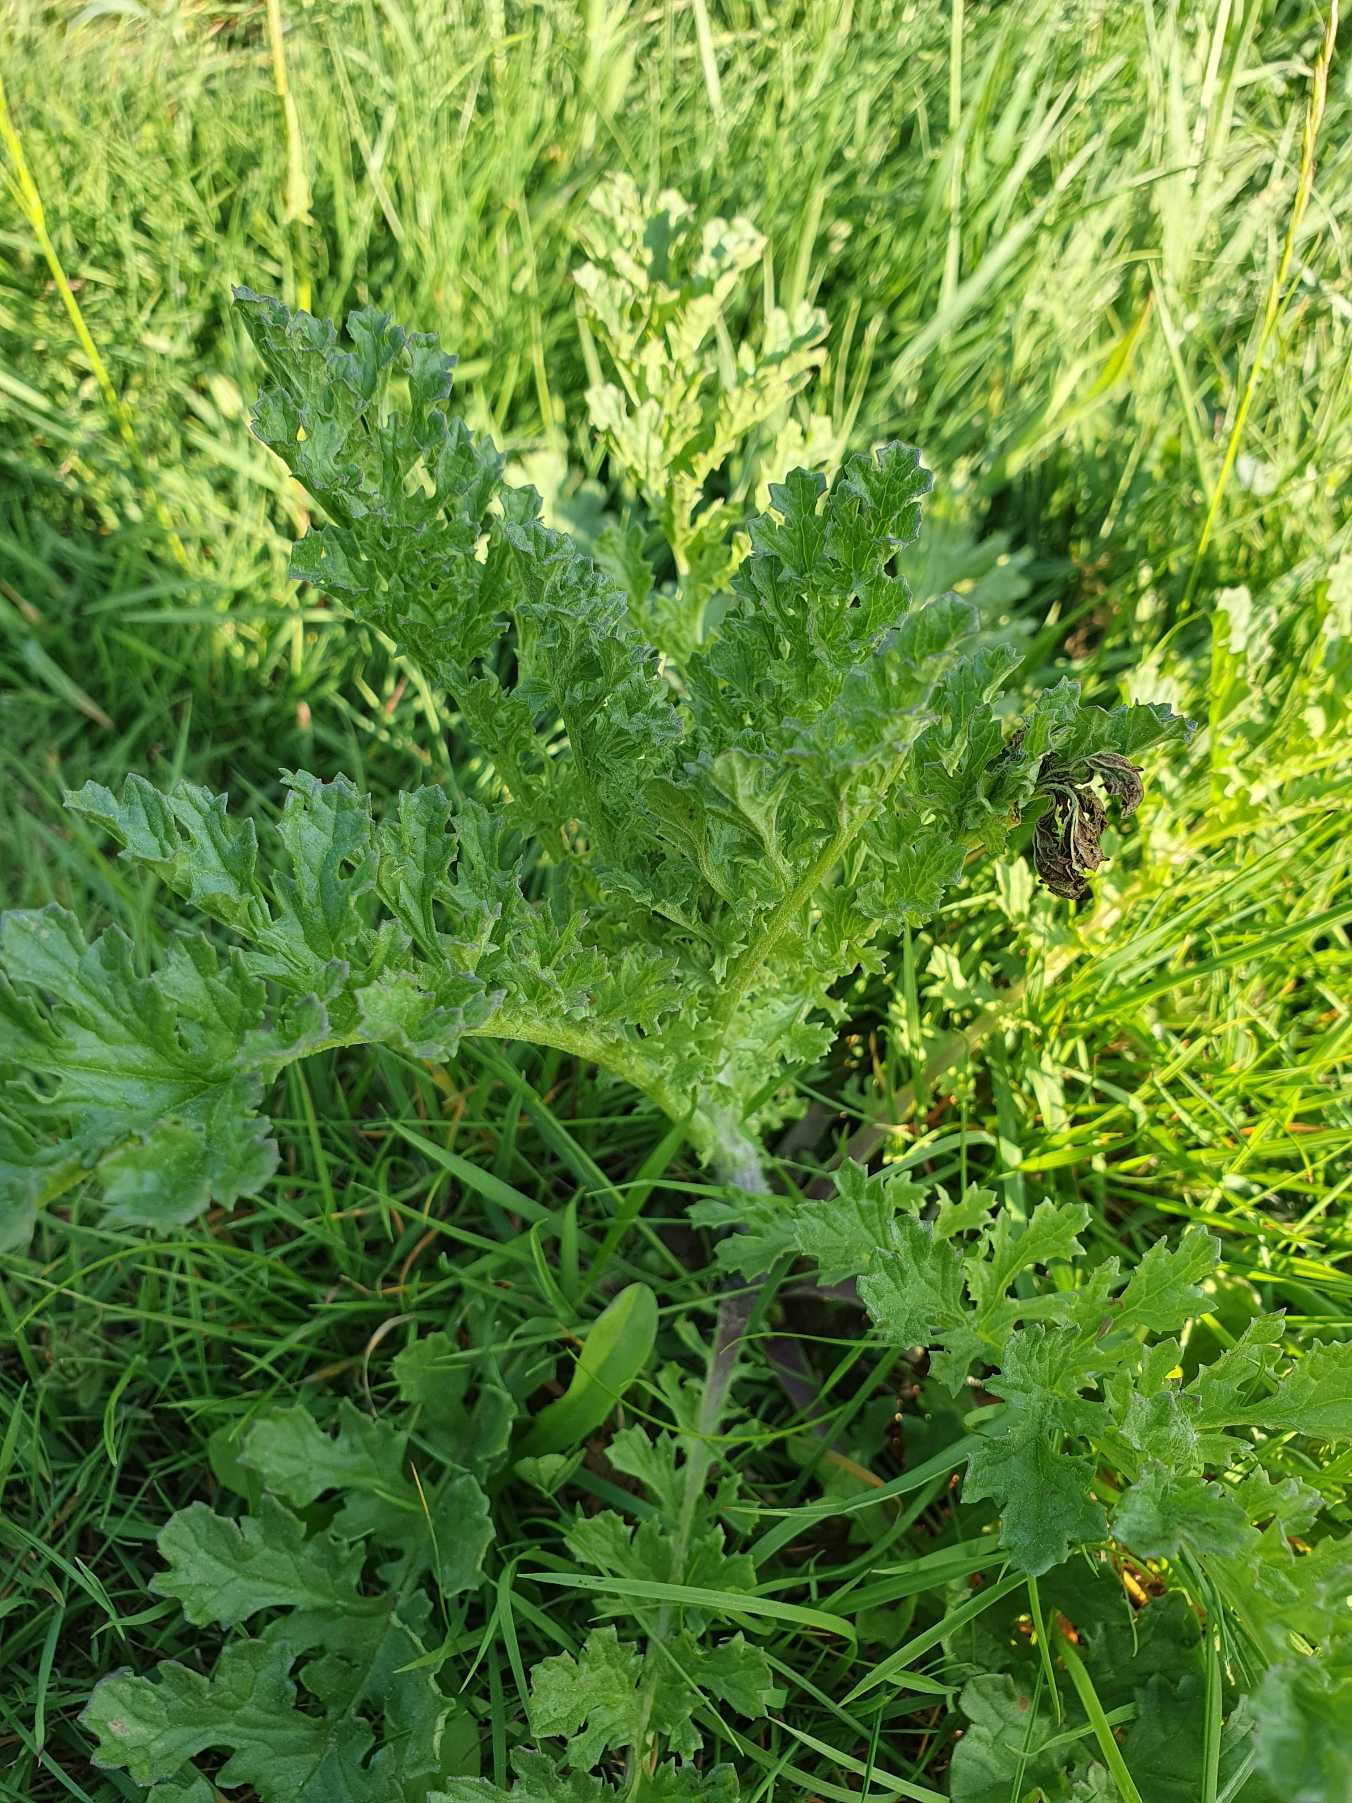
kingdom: Plantae
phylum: Tracheophyta
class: Magnoliopsida
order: Asterales
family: Asteraceae
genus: Jacobaea
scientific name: Jacobaea vulgaris
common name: Eng-brandbæger
